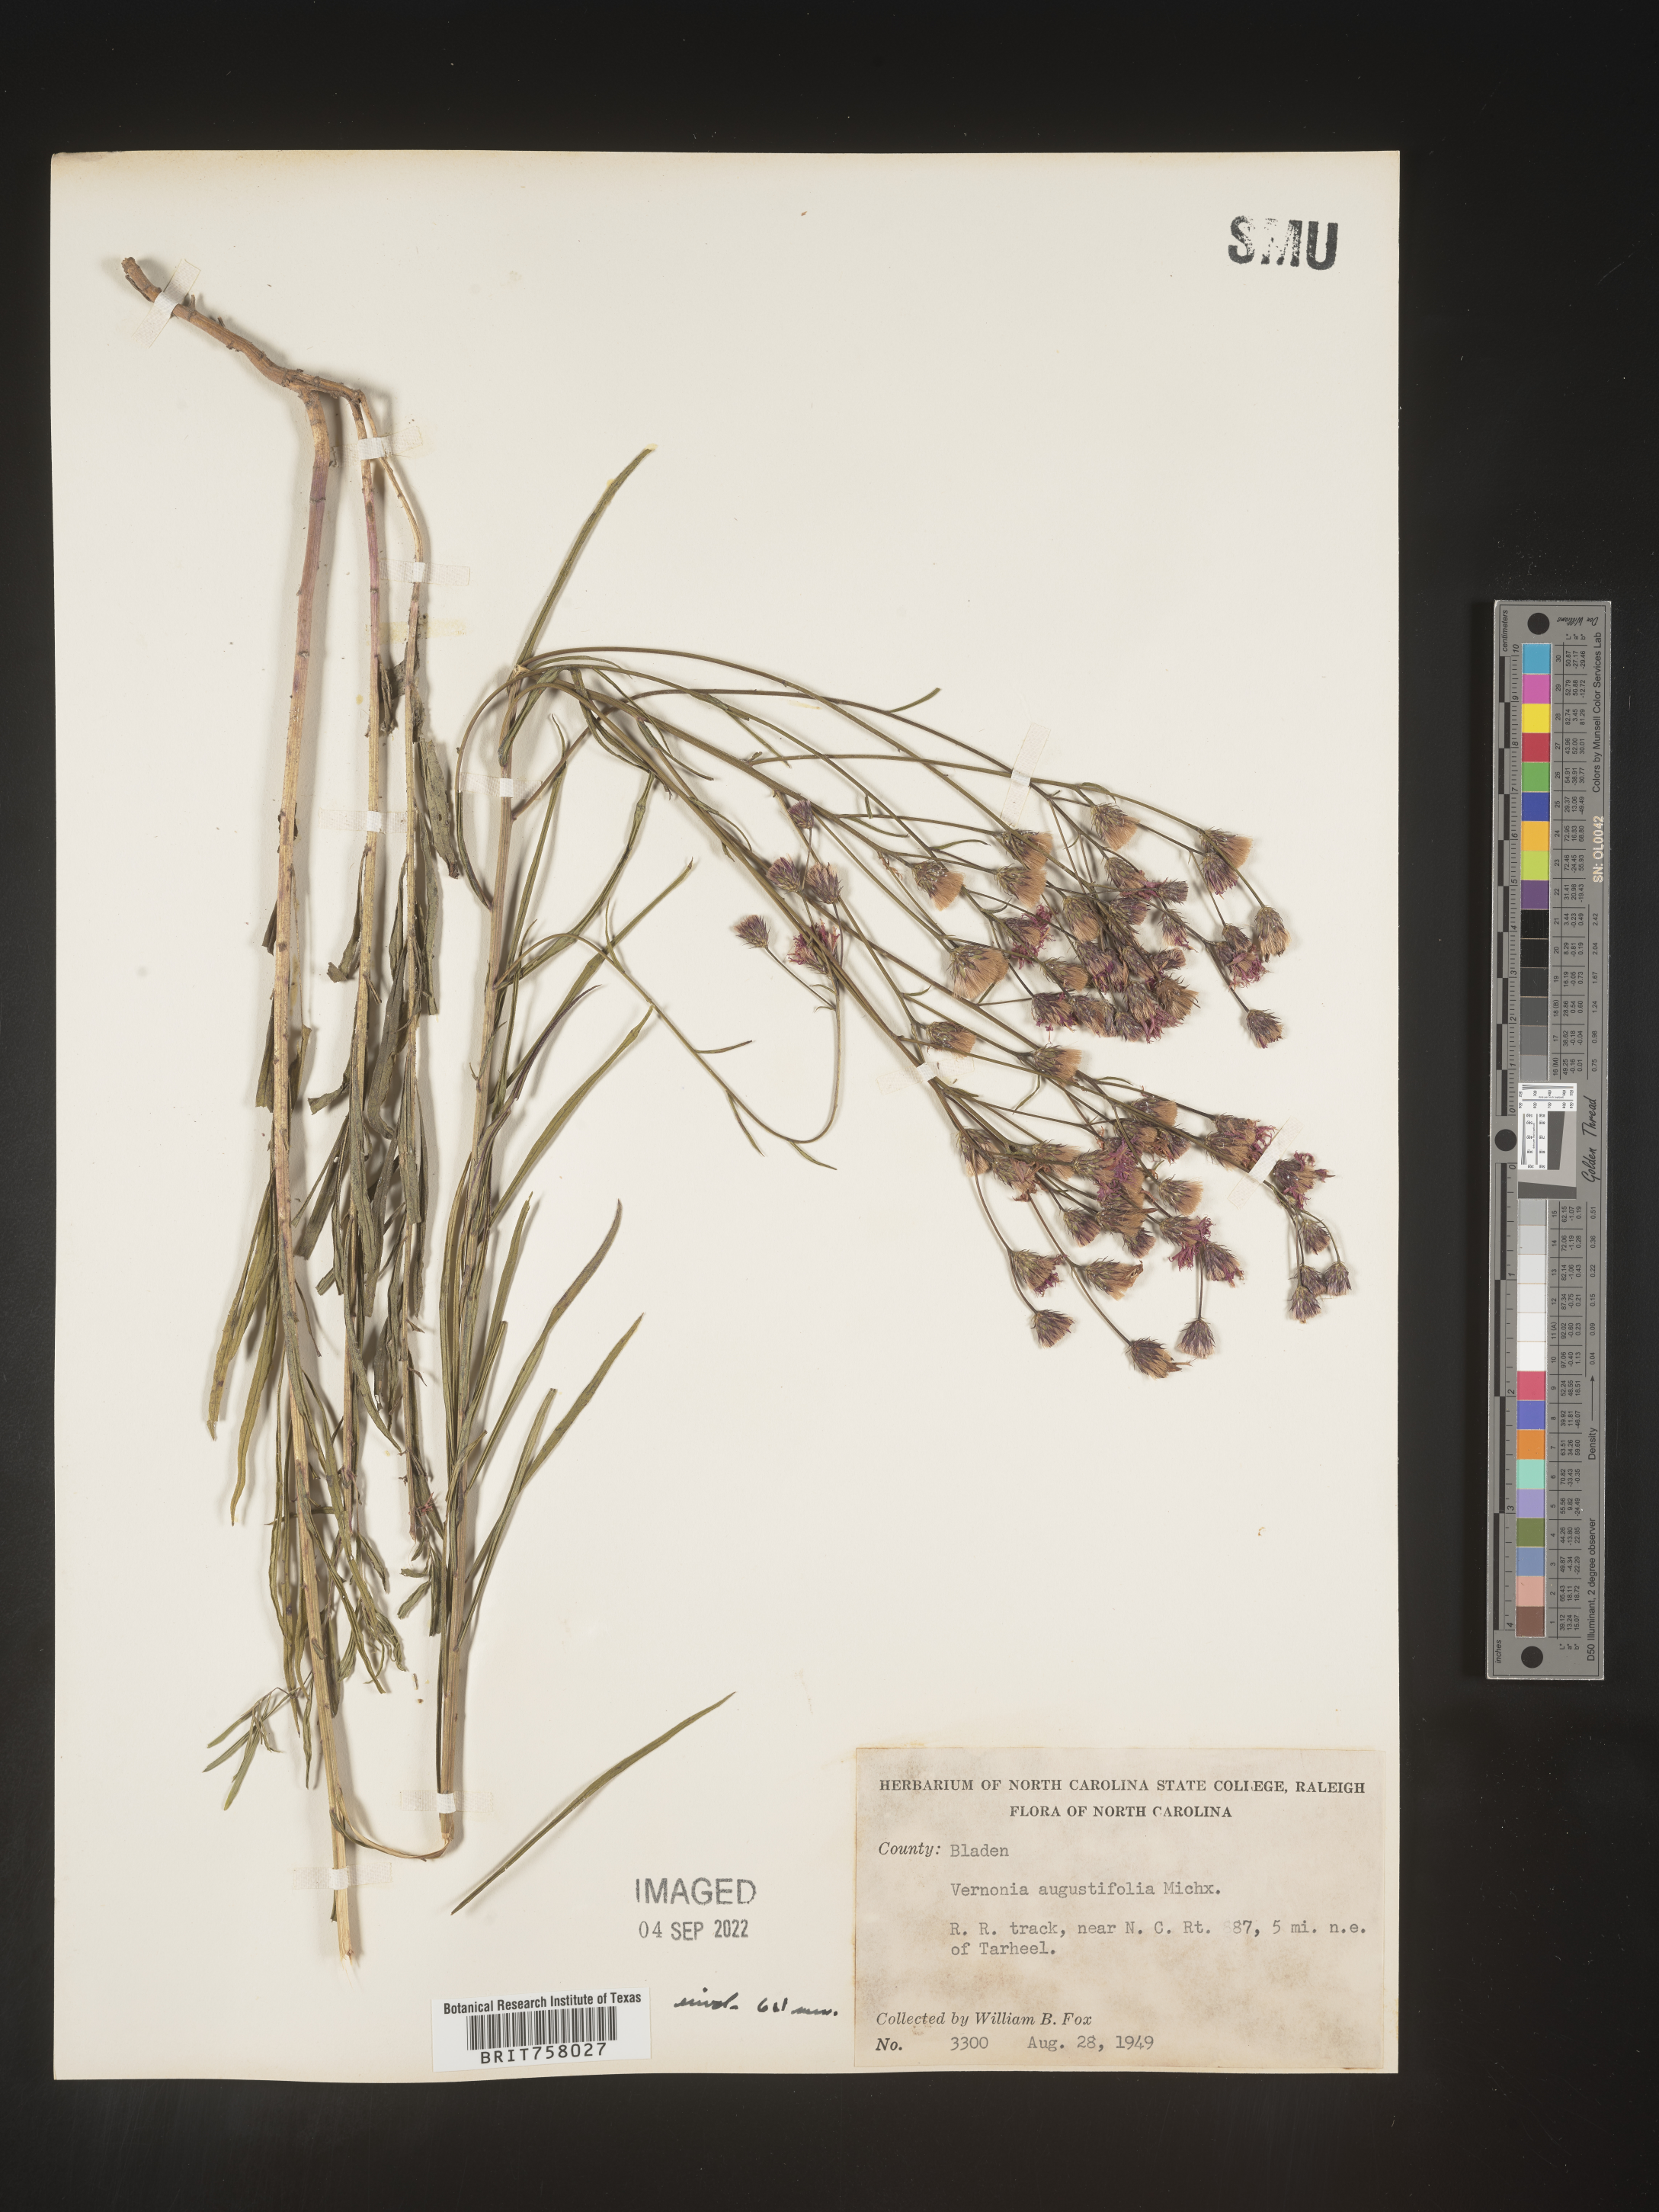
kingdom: Plantae
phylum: Tracheophyta
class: Magnoliopsida
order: Asterales
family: Asteraceae
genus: Vernonia
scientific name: Vernonia angustifolia
